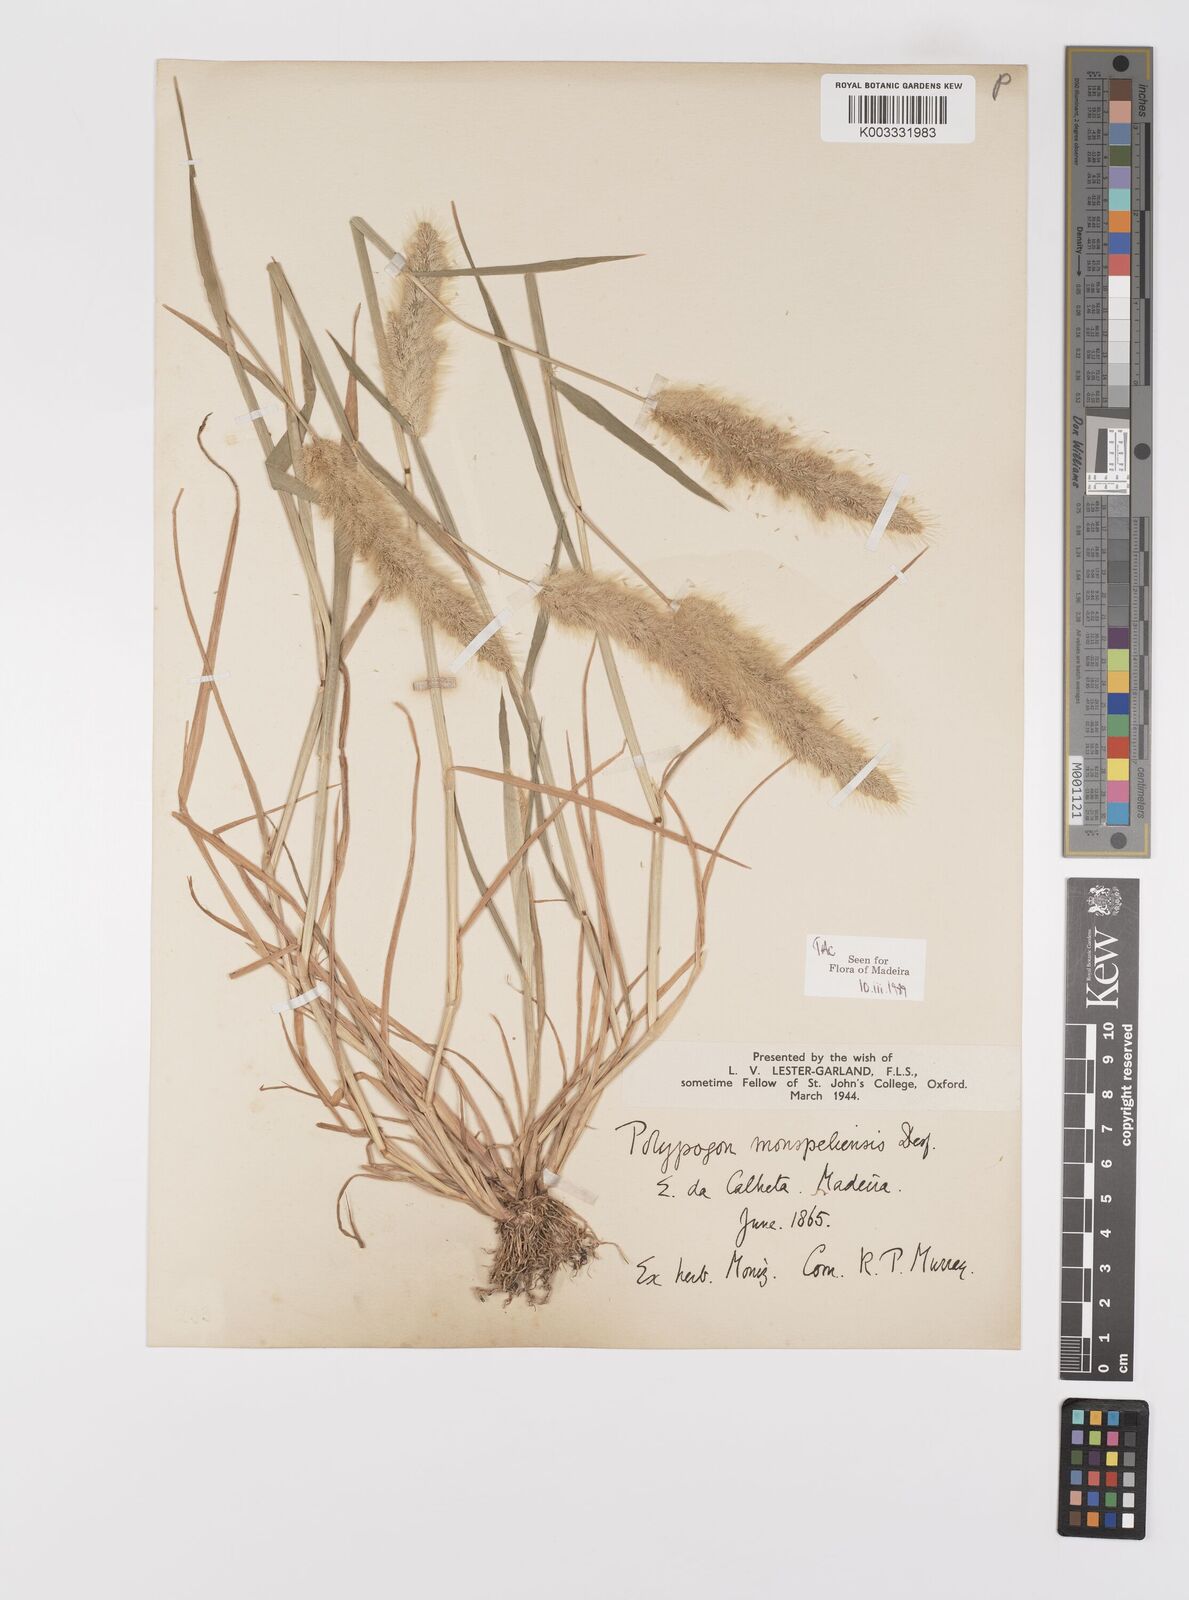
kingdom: Plantae
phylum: Tracheophyta
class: Liliopsida
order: Poales
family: Poaceae
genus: Polypogon
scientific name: Polypogon monspeliensis
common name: Annual rabbitsfoot grass
